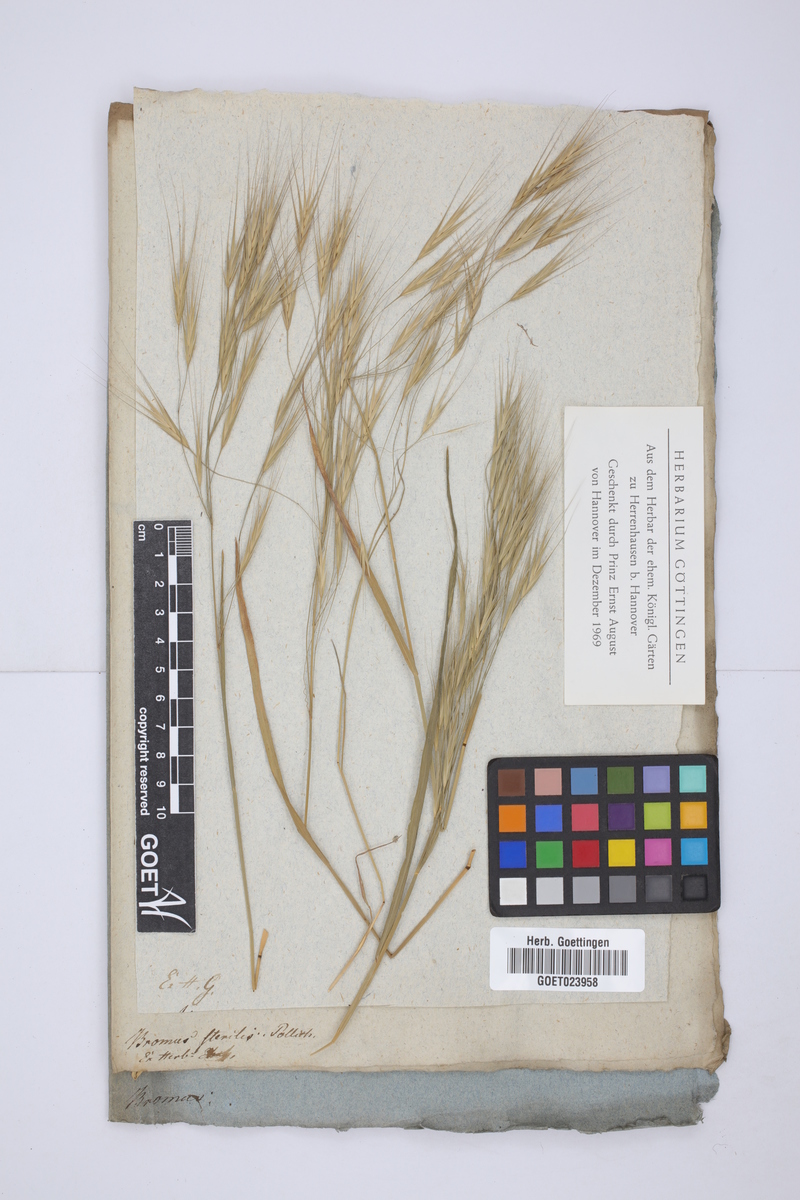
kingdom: Plantae
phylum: Tracheophyta
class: Liliopsida
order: Poales
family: Poaceae
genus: Bromus
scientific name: Bromus sterilis
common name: Poverty brome
